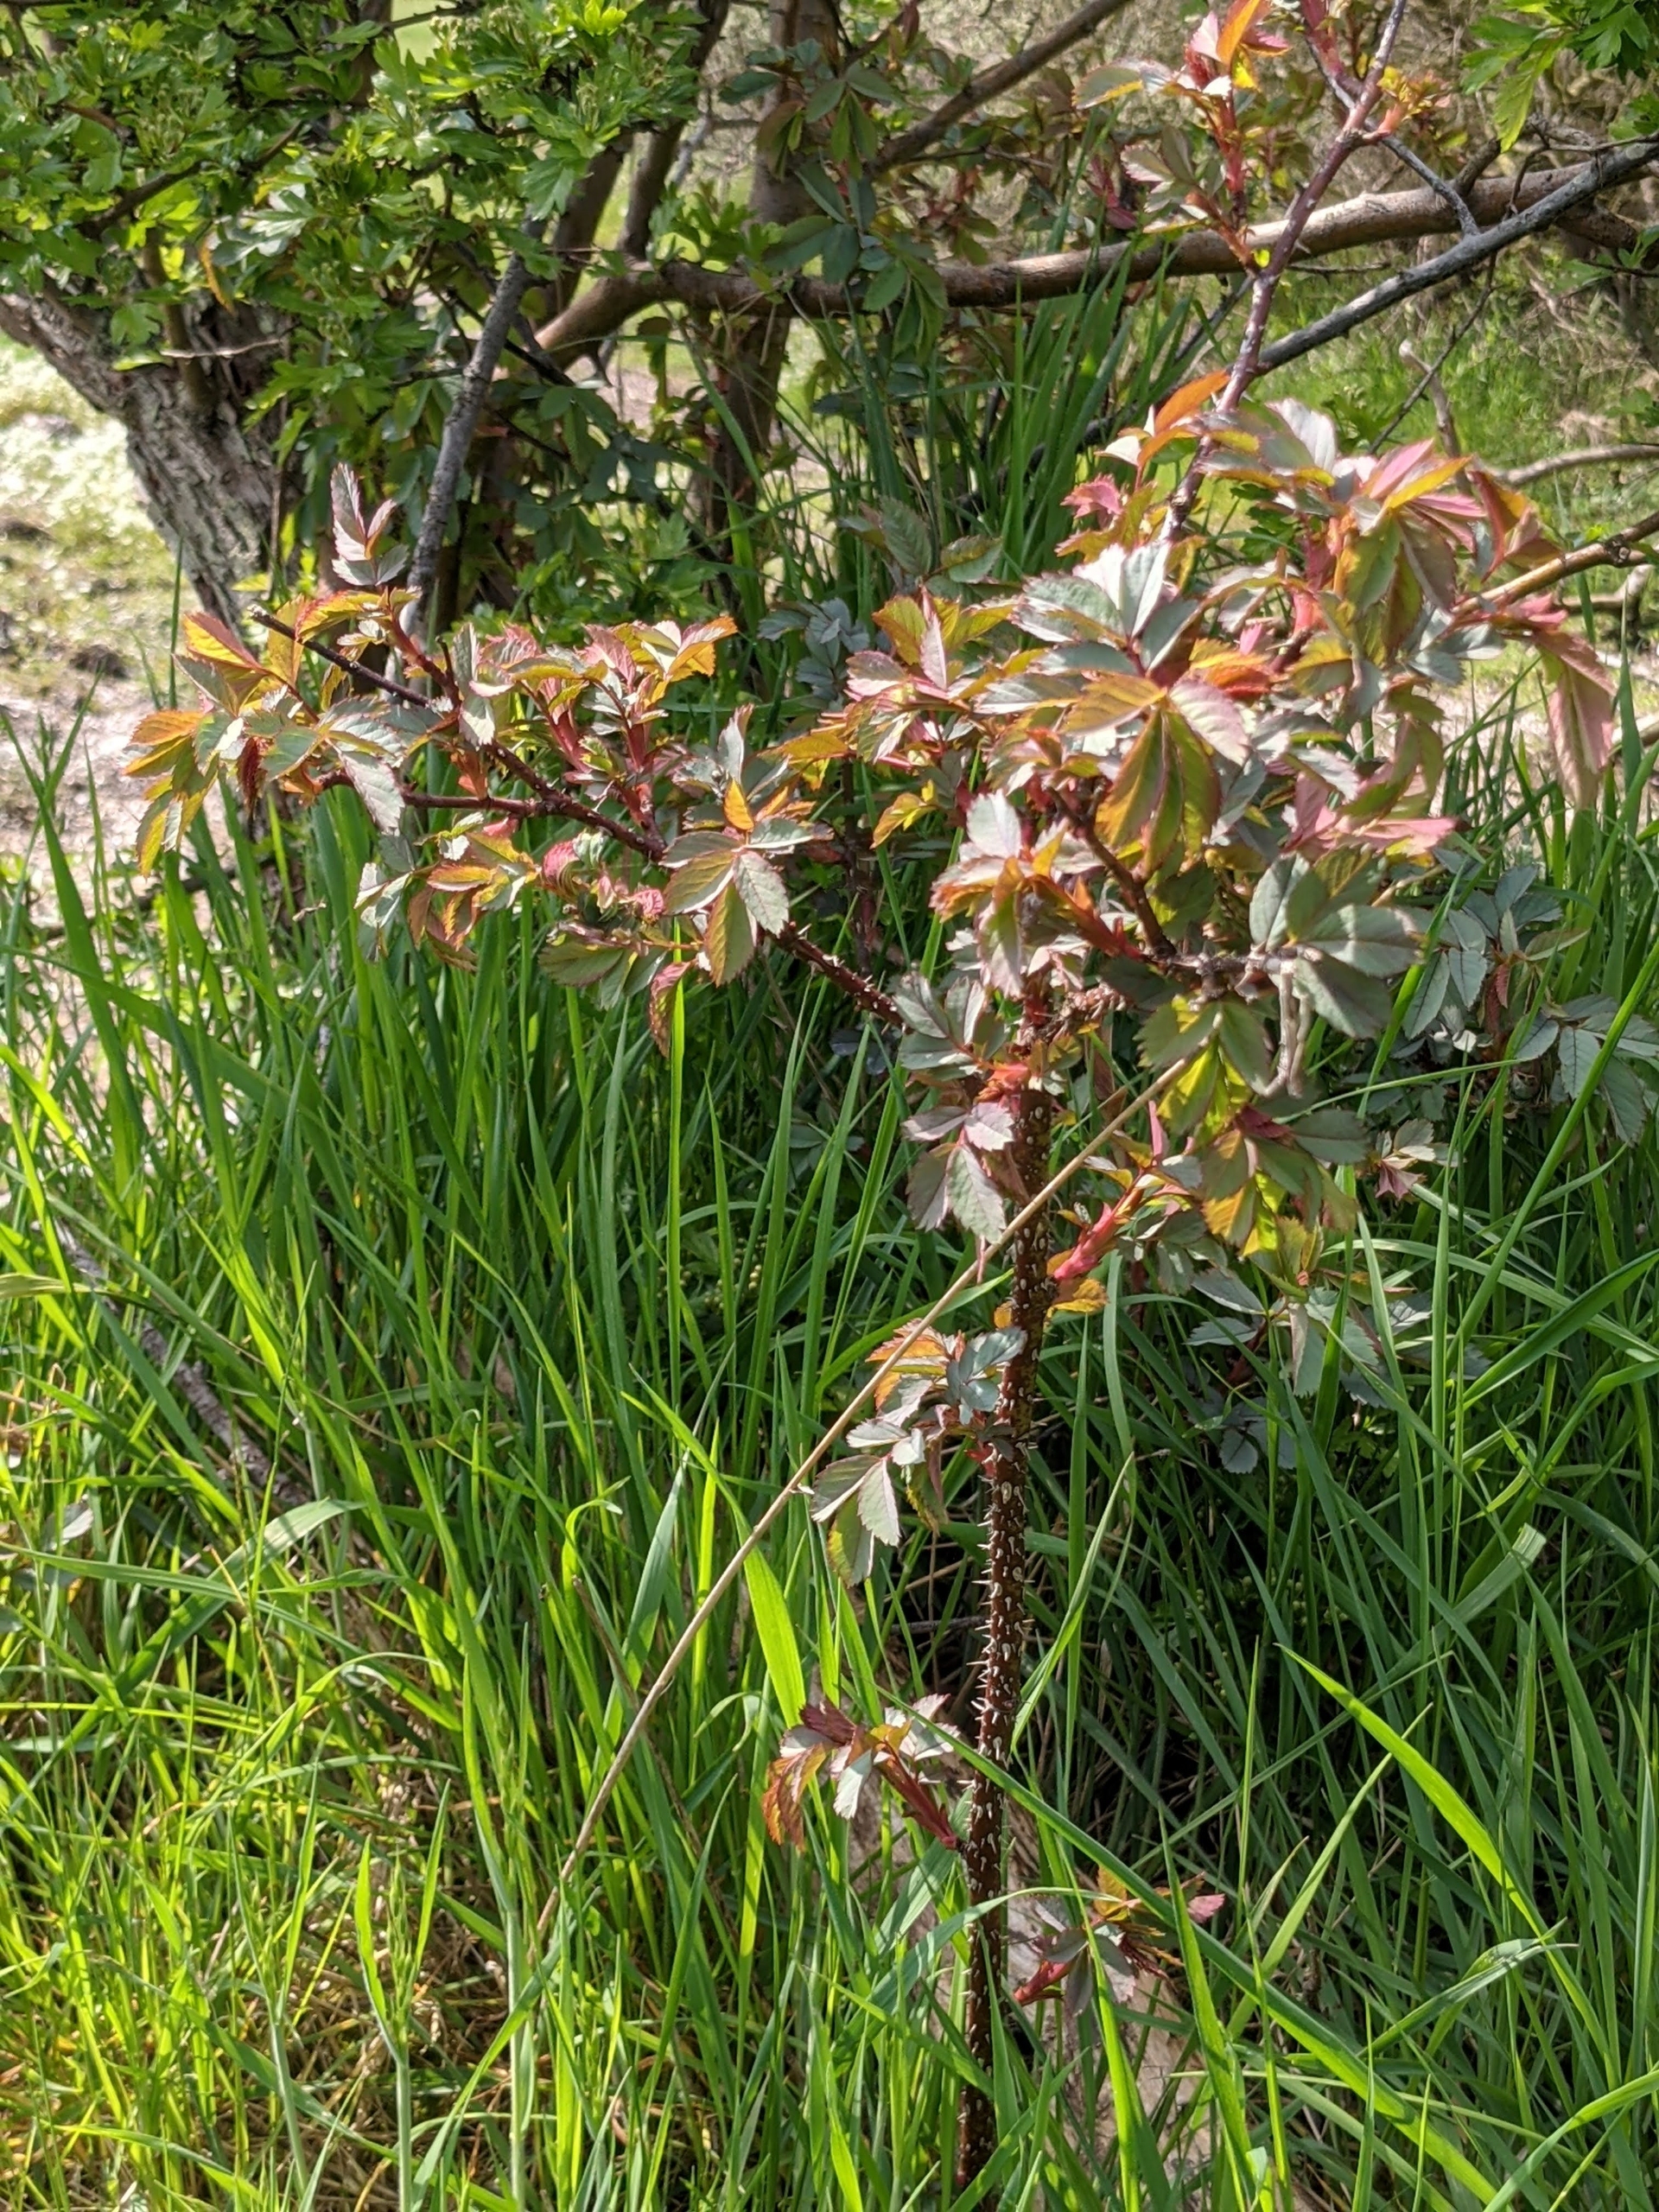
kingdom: Plantae
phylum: Tracheophyta
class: Magnoliopsida
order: Rosales
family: Rosaceae
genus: Rosa
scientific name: Rosa glauca
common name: Kobber-rose
